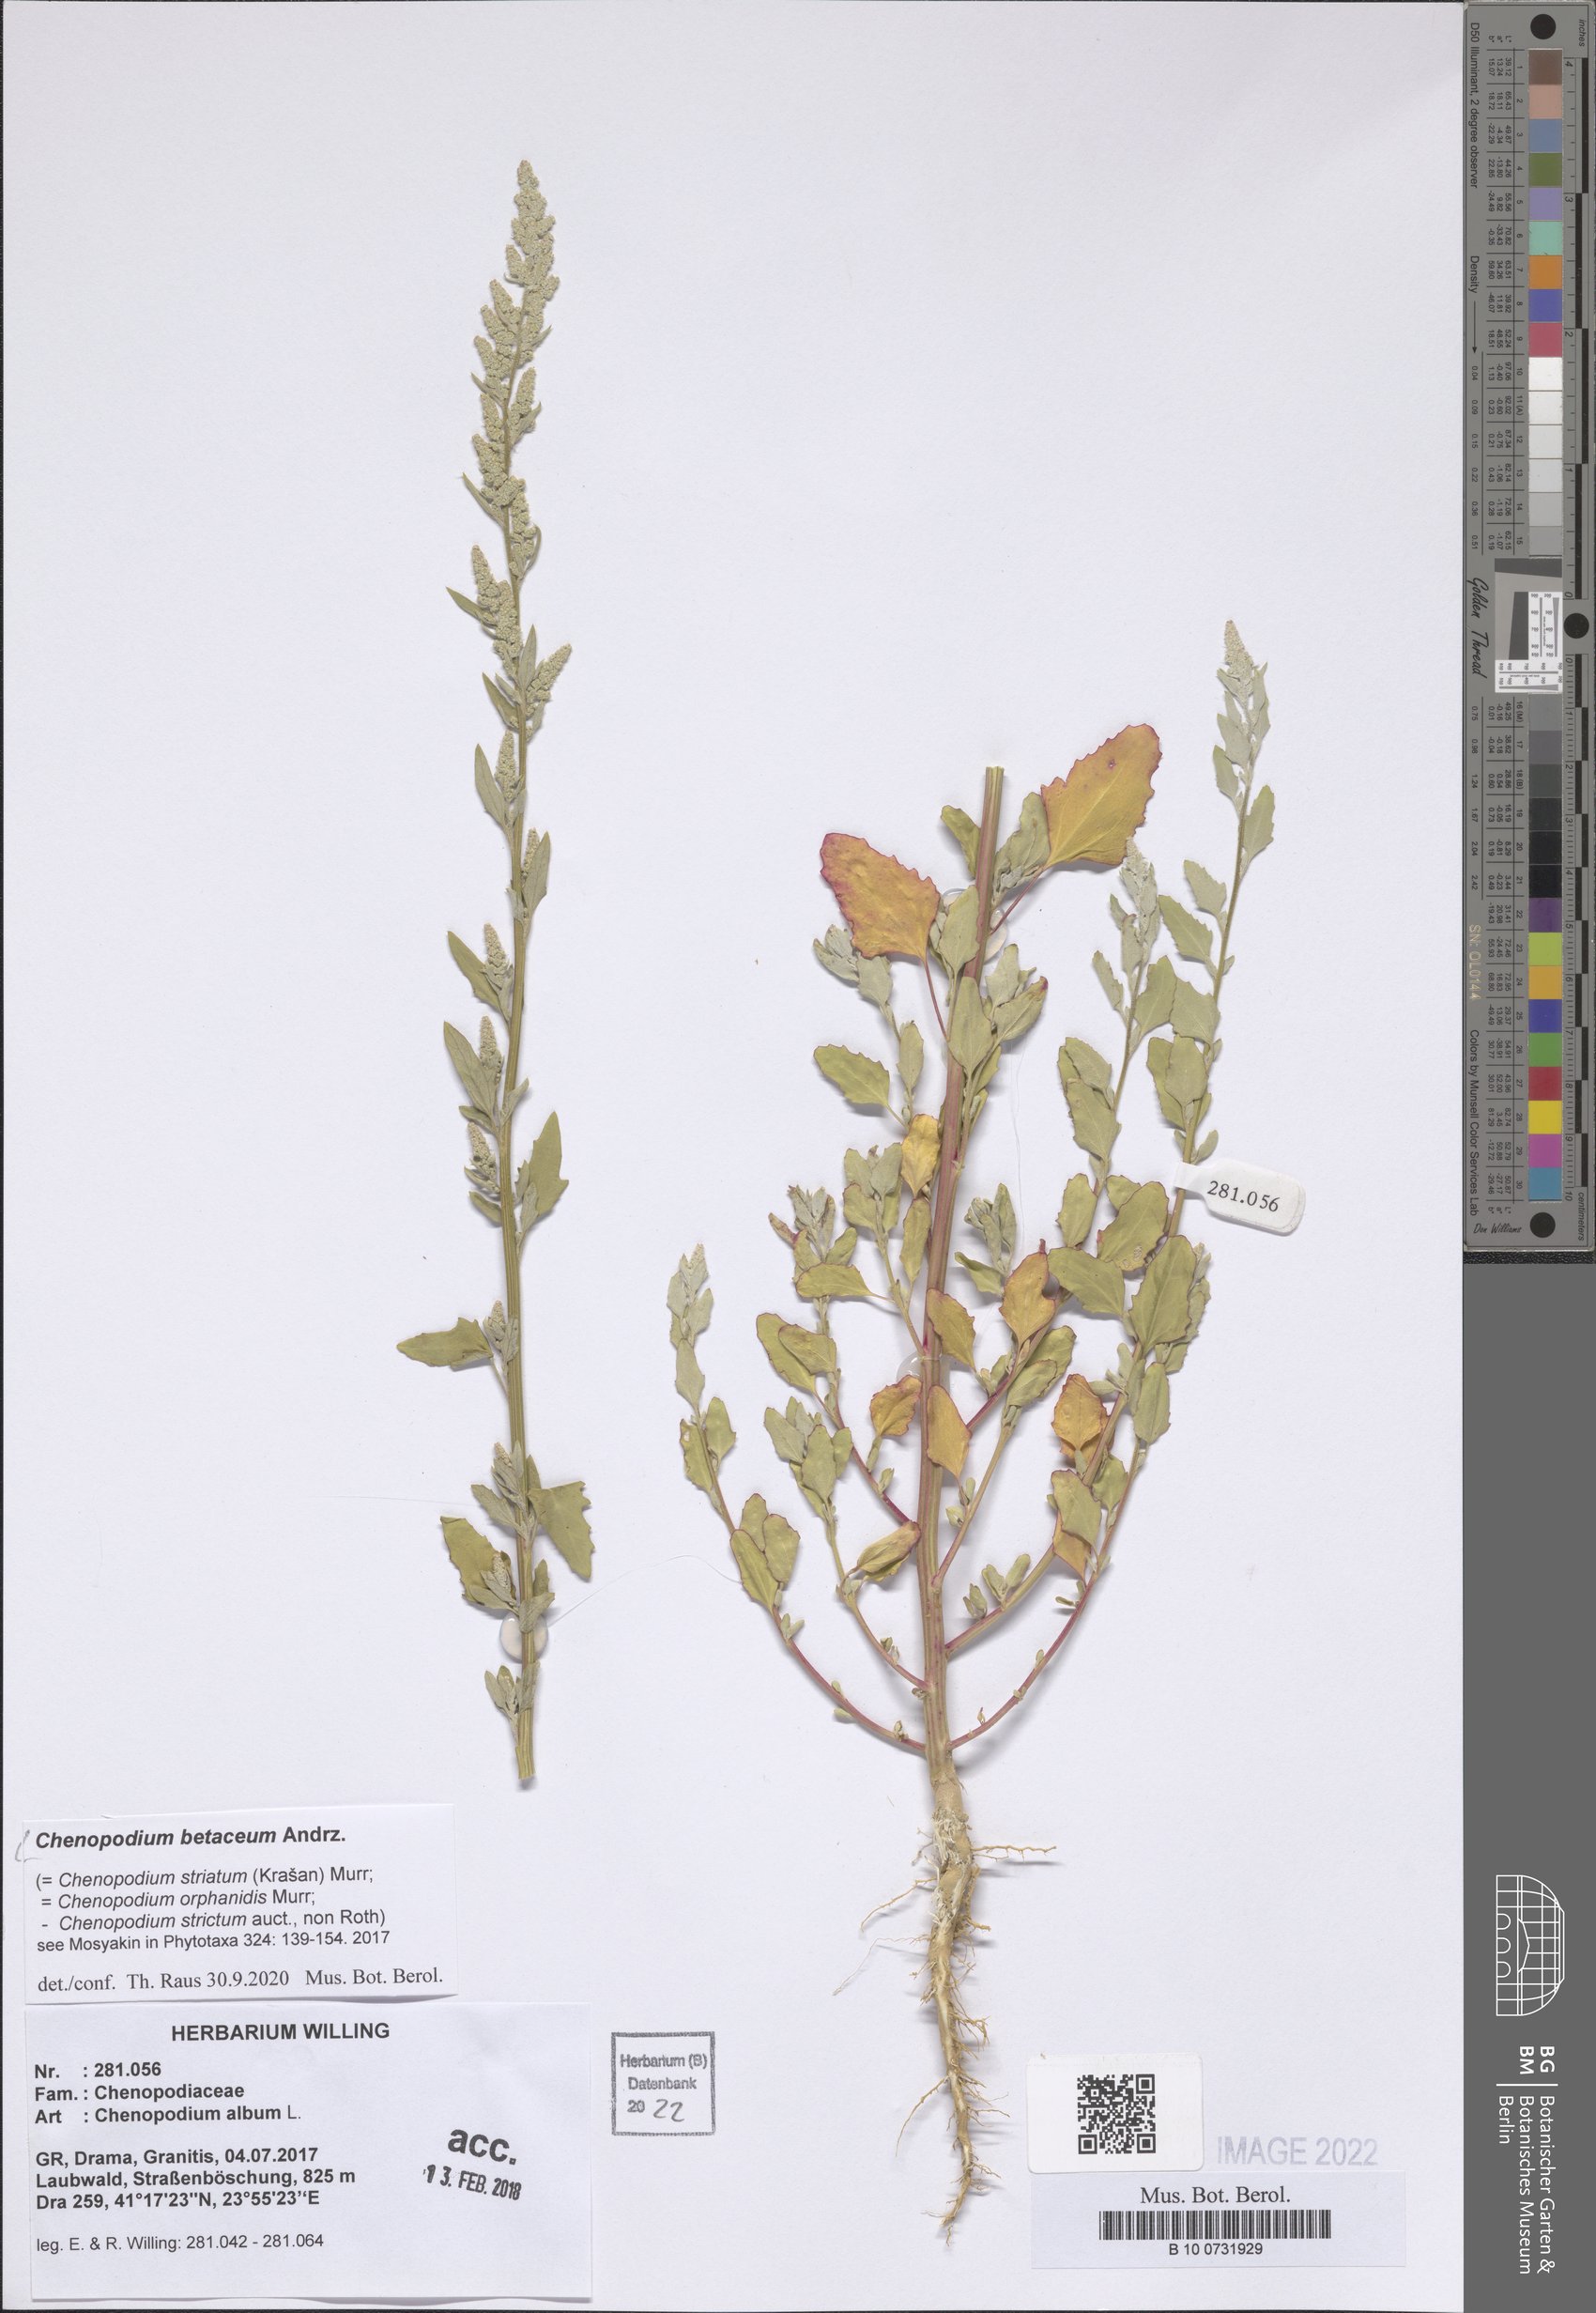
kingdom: Plantae
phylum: Tracheophyta
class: Magnoliopsida
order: Caryophyllales
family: Amaranthaceae
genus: Chenopodium
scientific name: Chenopodium betaceum
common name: Striped goosefoot
